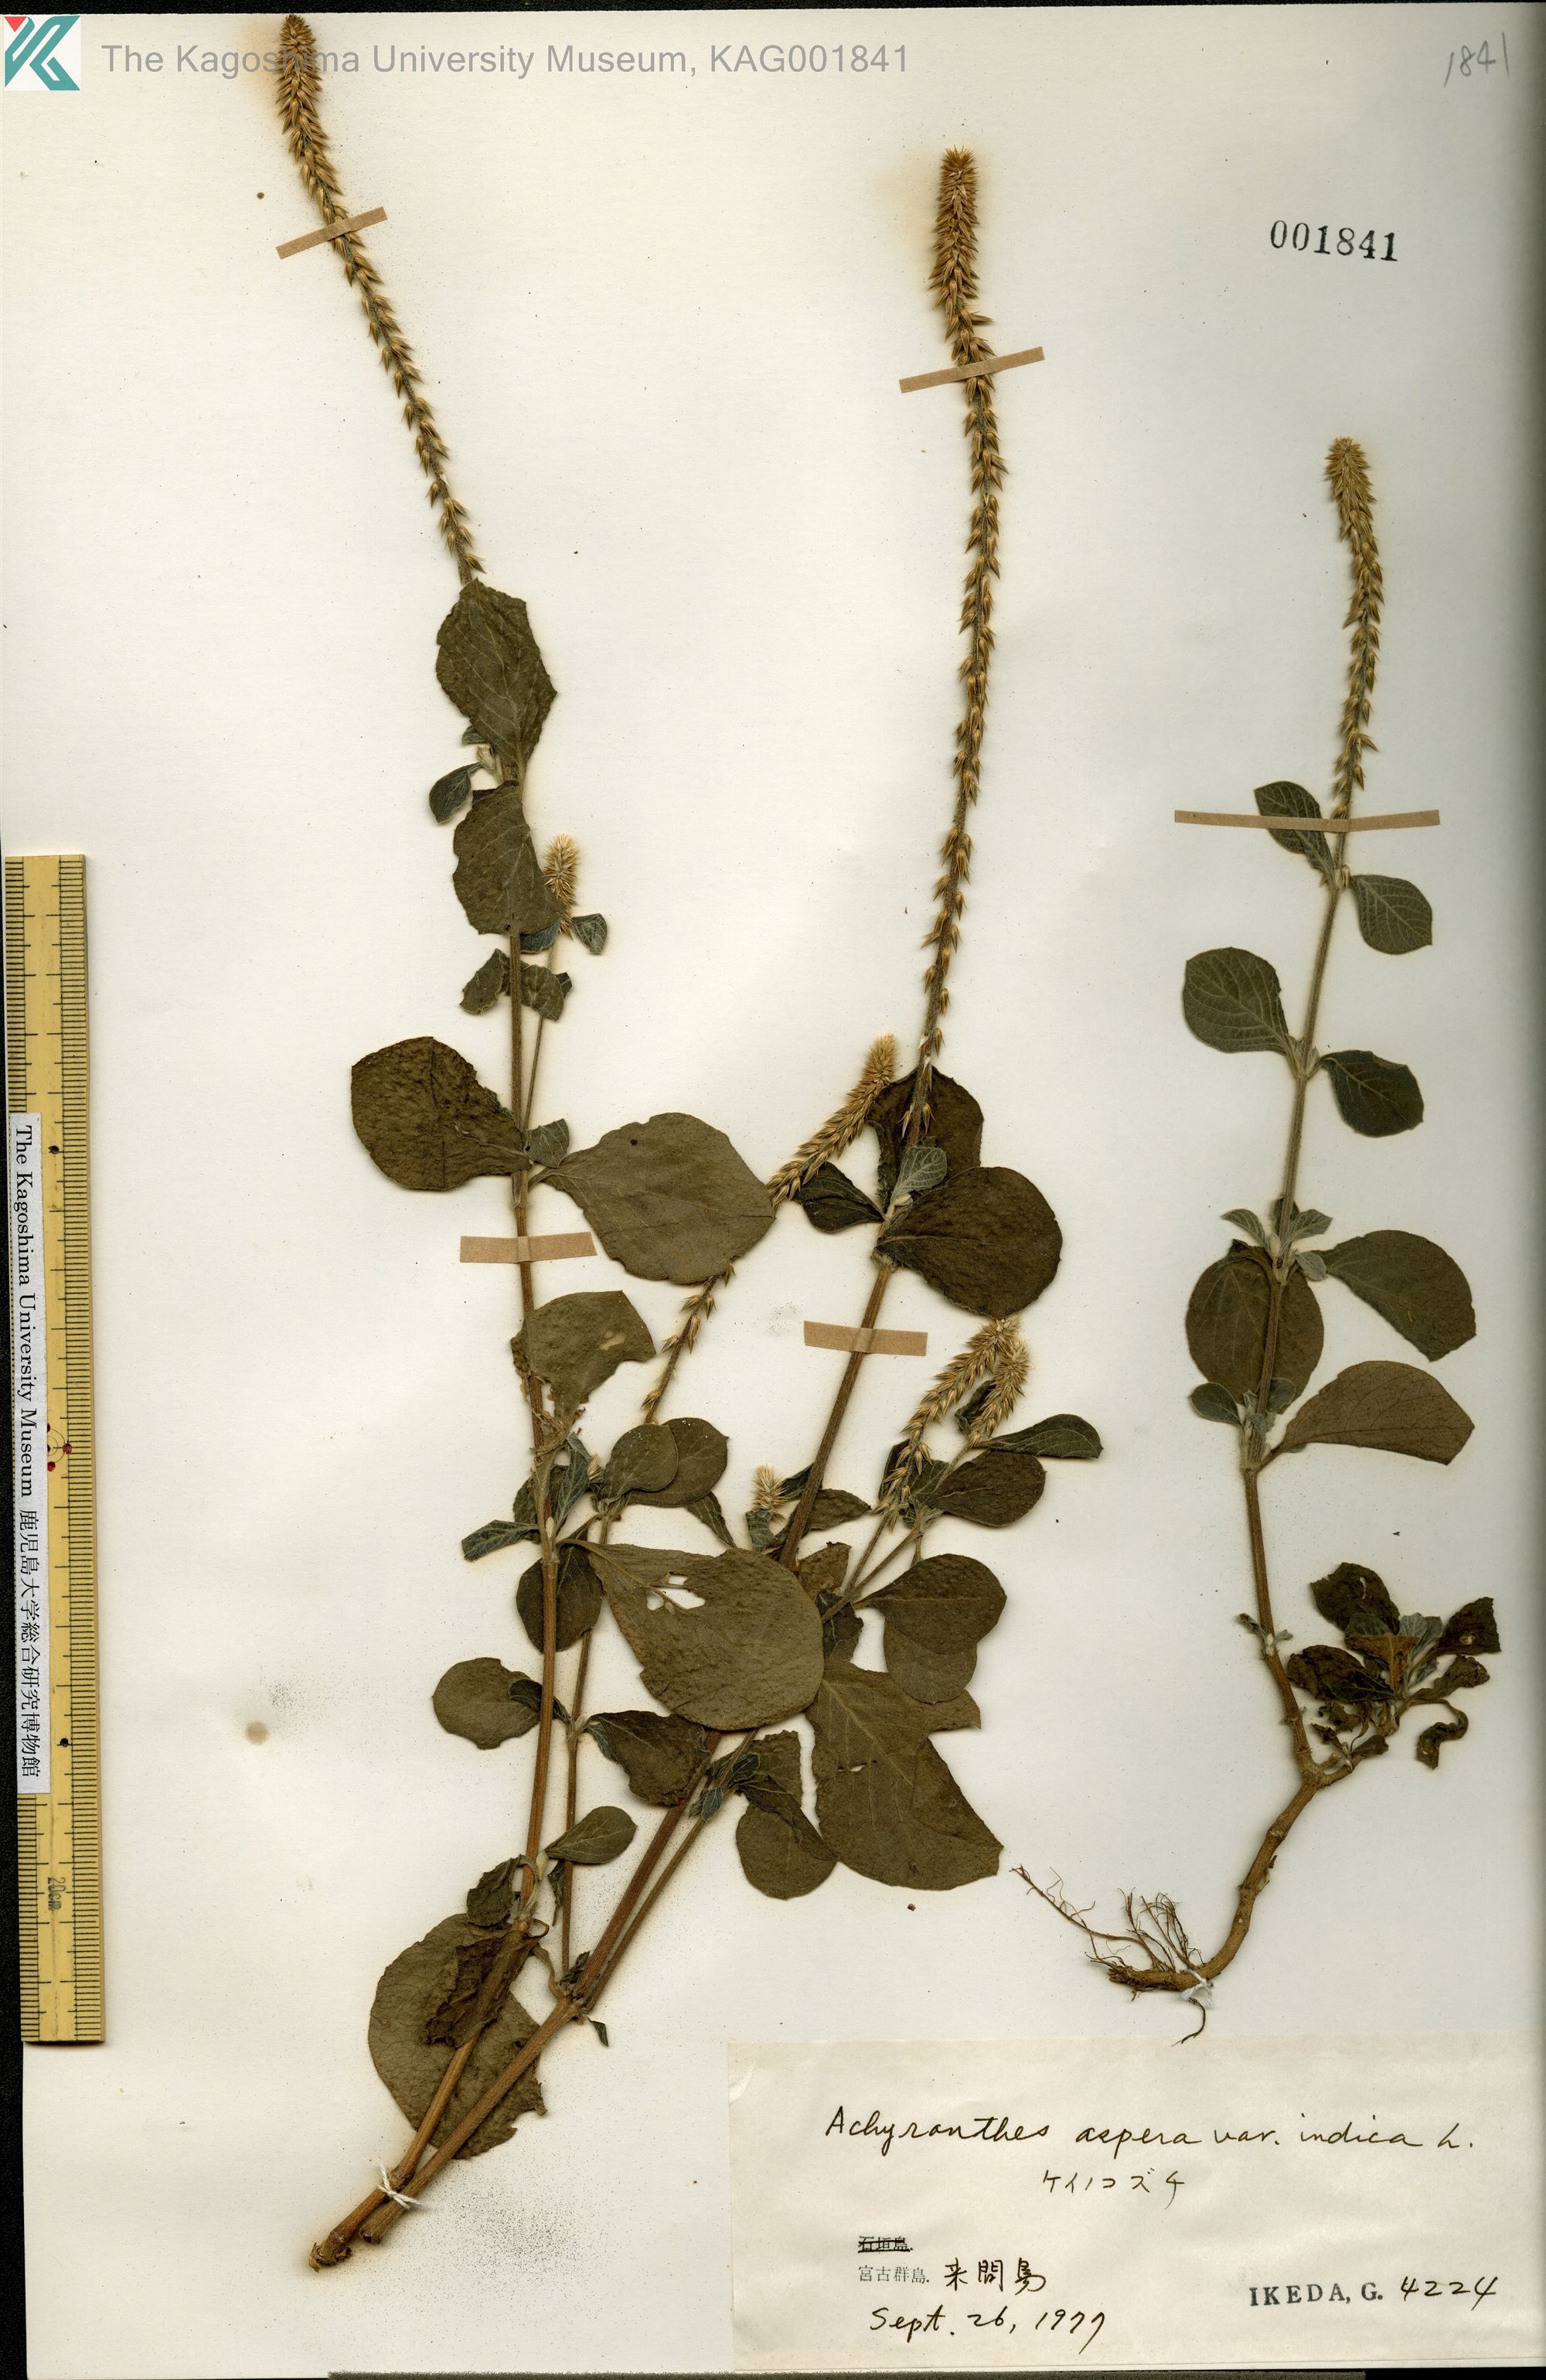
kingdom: Plantae
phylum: Tracheophyta
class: Magnoliopsida
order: Caryophyllales
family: Amaranthaceae
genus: Achyranthes
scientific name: Achyranthes aspera
